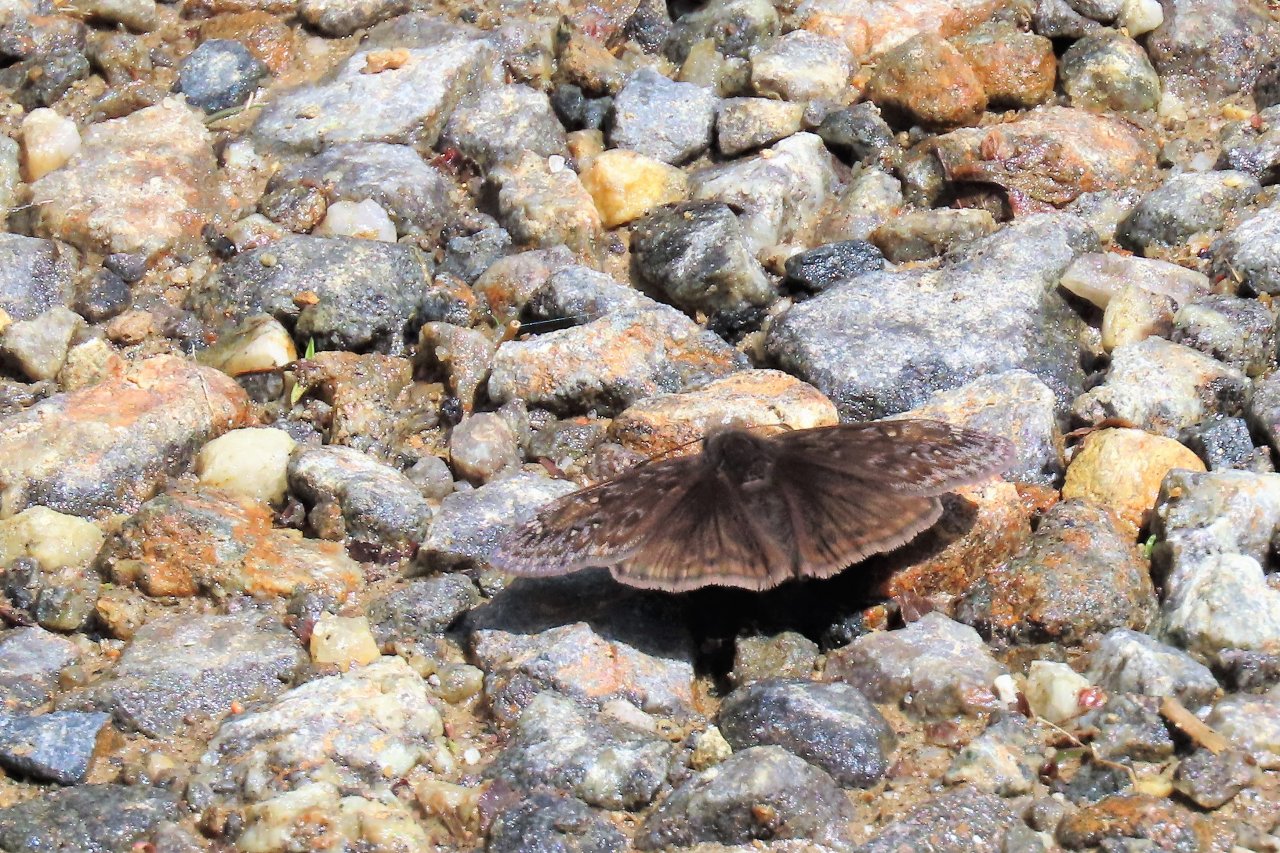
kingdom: Animalia
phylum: Arthropoda
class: Insecta
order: Lepidoptera
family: Hesperiidae
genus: Gesta
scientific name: Gesta
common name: Juvenal's Duskywing
